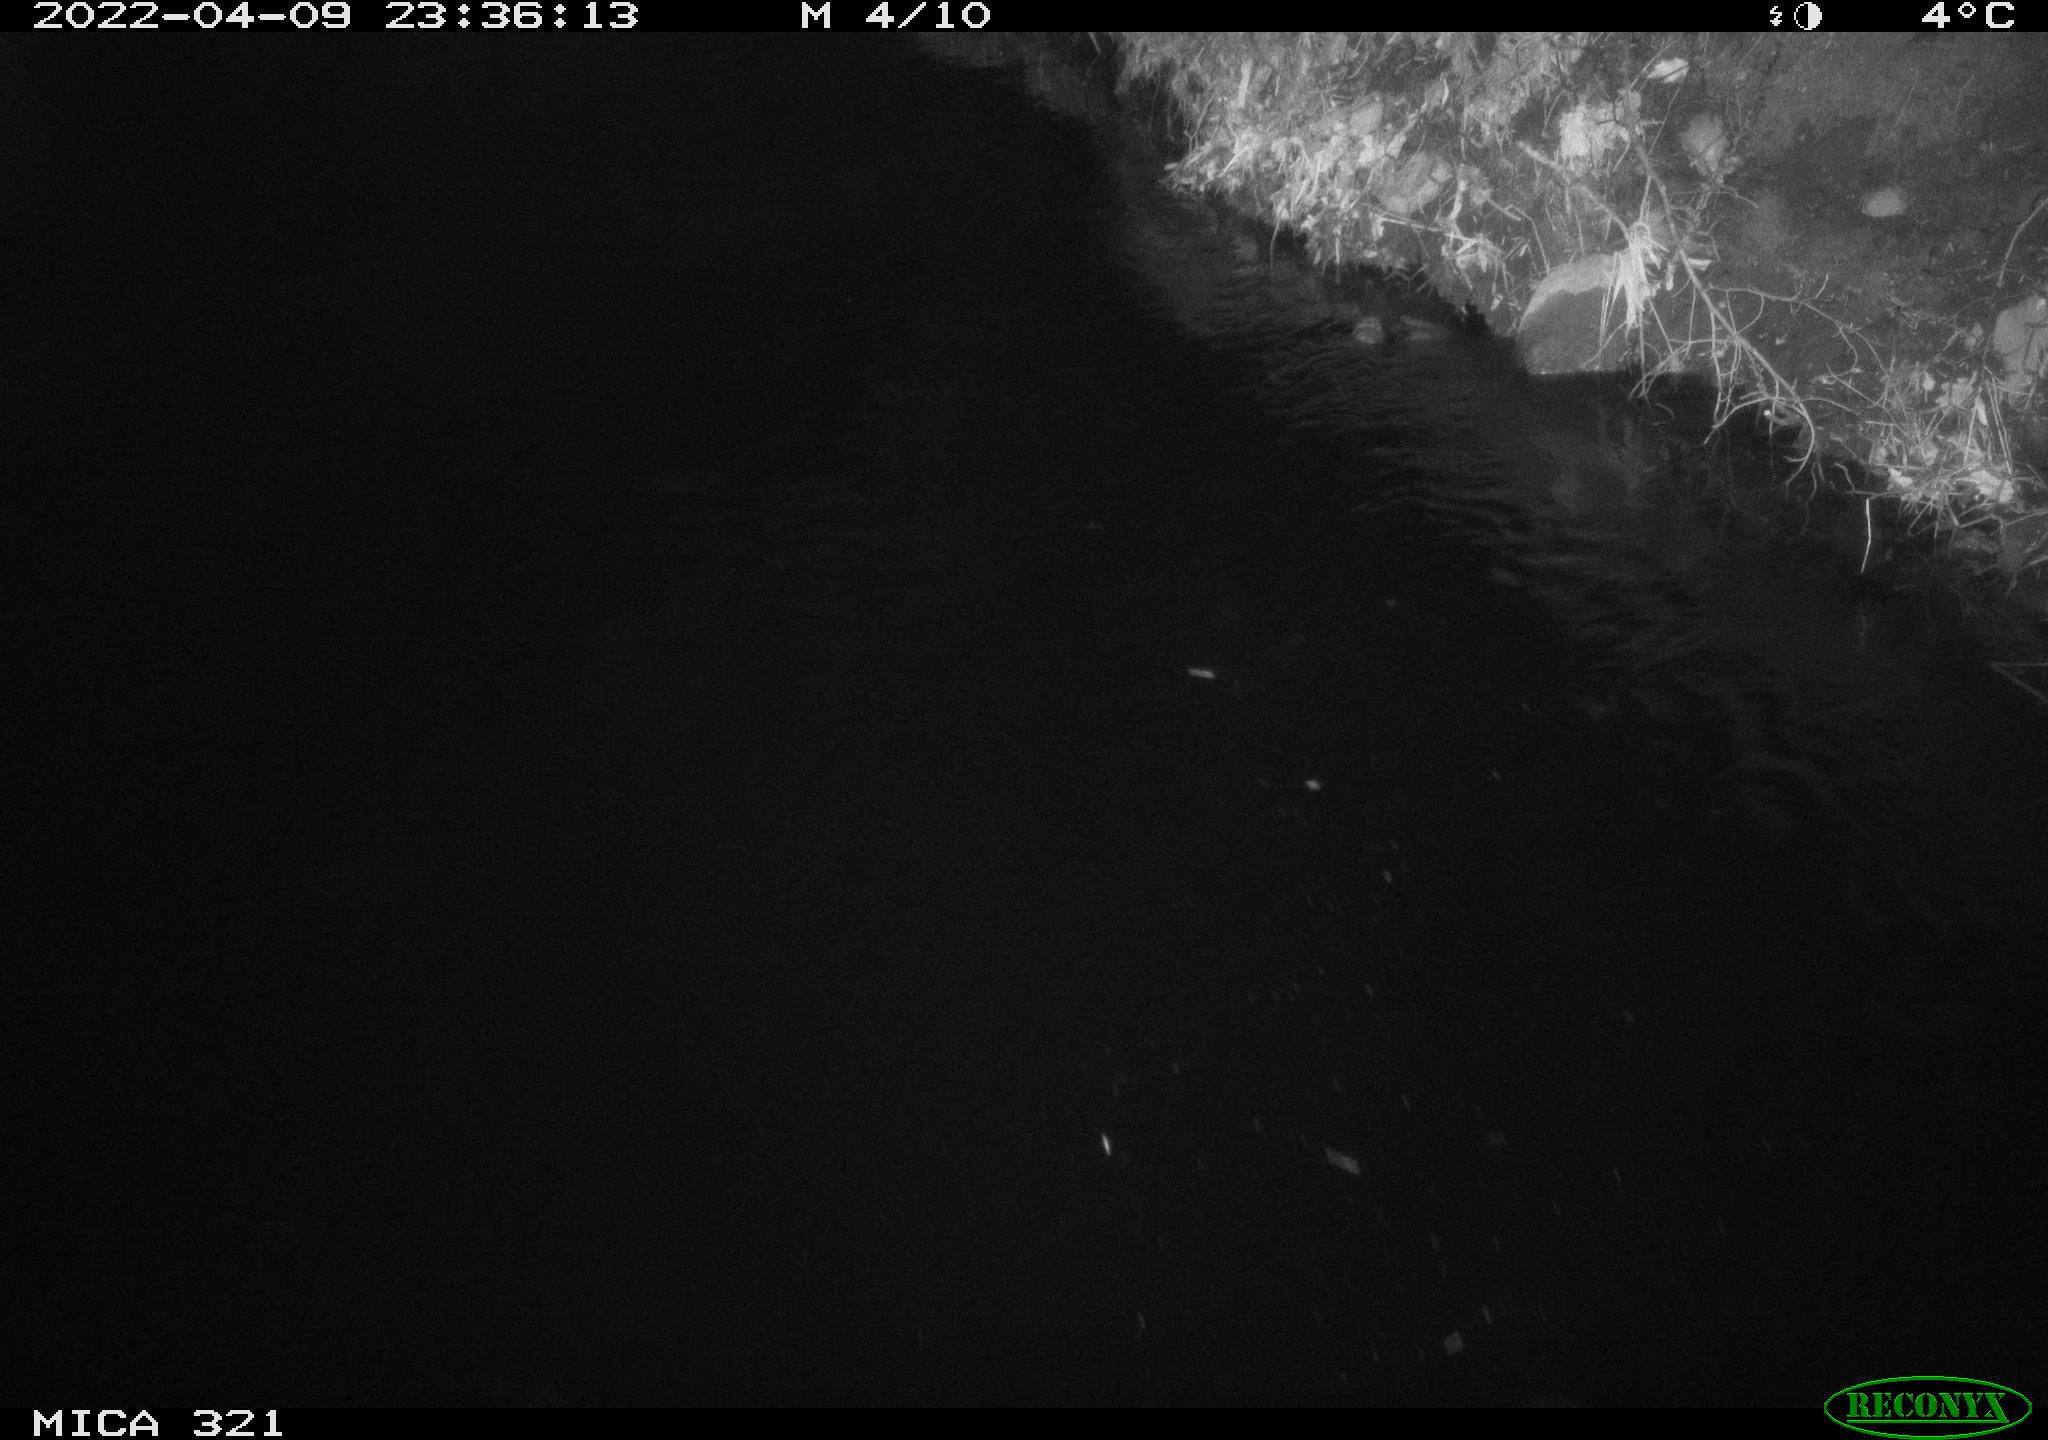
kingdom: Animalia
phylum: Chordata
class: Aves
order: Anseriformes
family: Anatidae
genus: Anas
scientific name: Anas platyrhynchos
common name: Mallard
